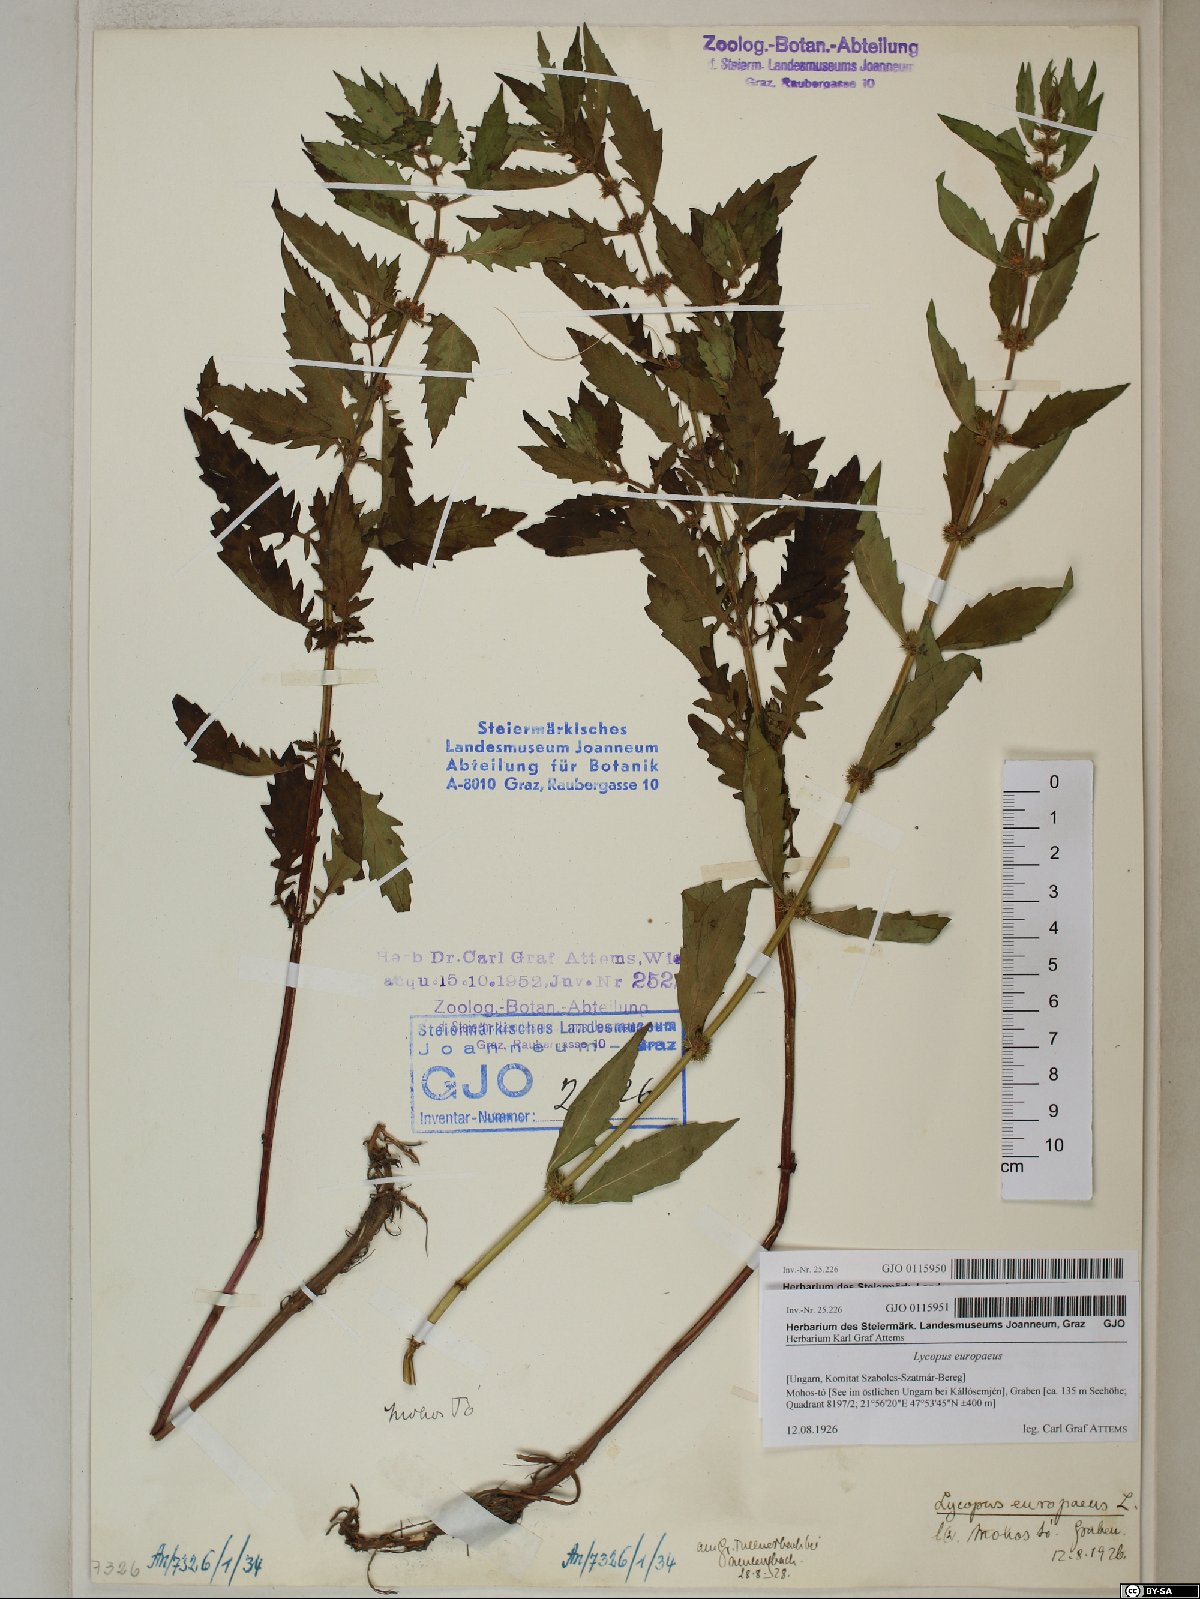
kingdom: Plantae
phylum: Tracheophyta
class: Magnoliopsida
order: Lamiales
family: Lamiaceae
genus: Lycopus
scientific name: Lycopus europaeus
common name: European bugleweed
